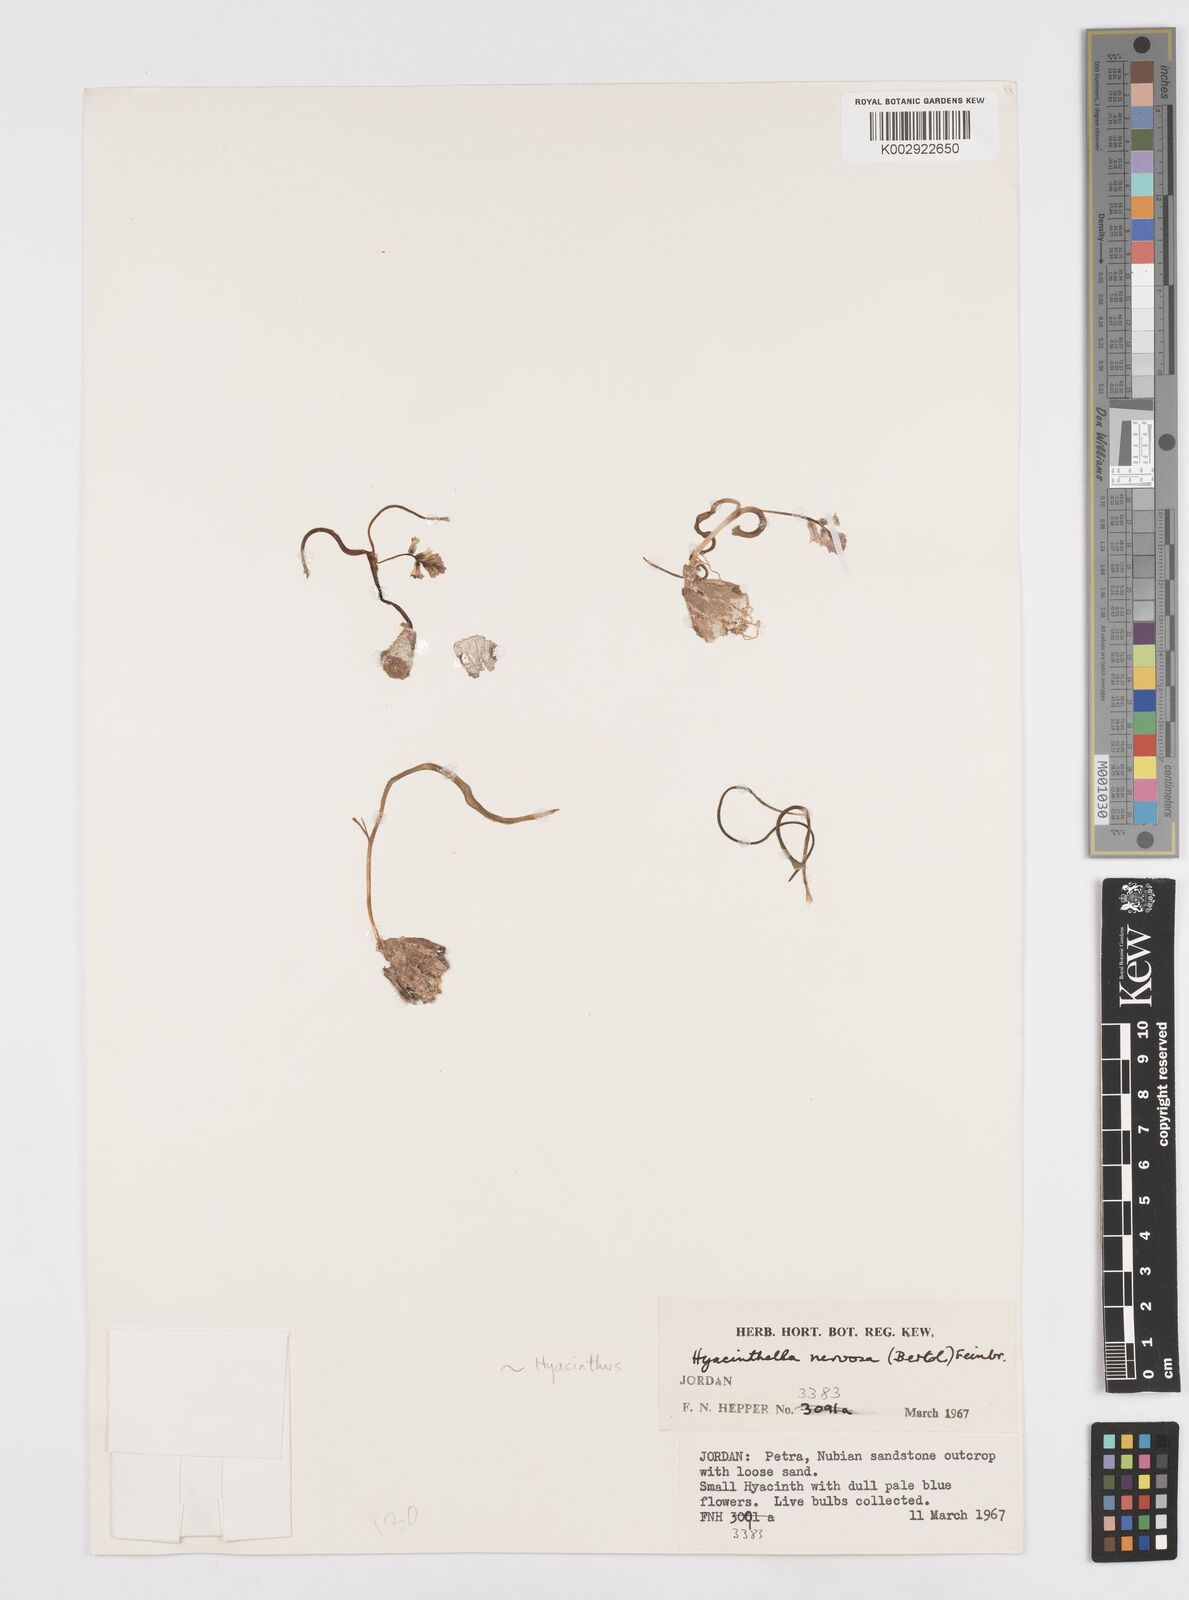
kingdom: Plantae
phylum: Tracheophyta
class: Liliopsida
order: Asparagales
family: Asparagaceae
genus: Hyacinthella
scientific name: Hyacinthella nervosa
